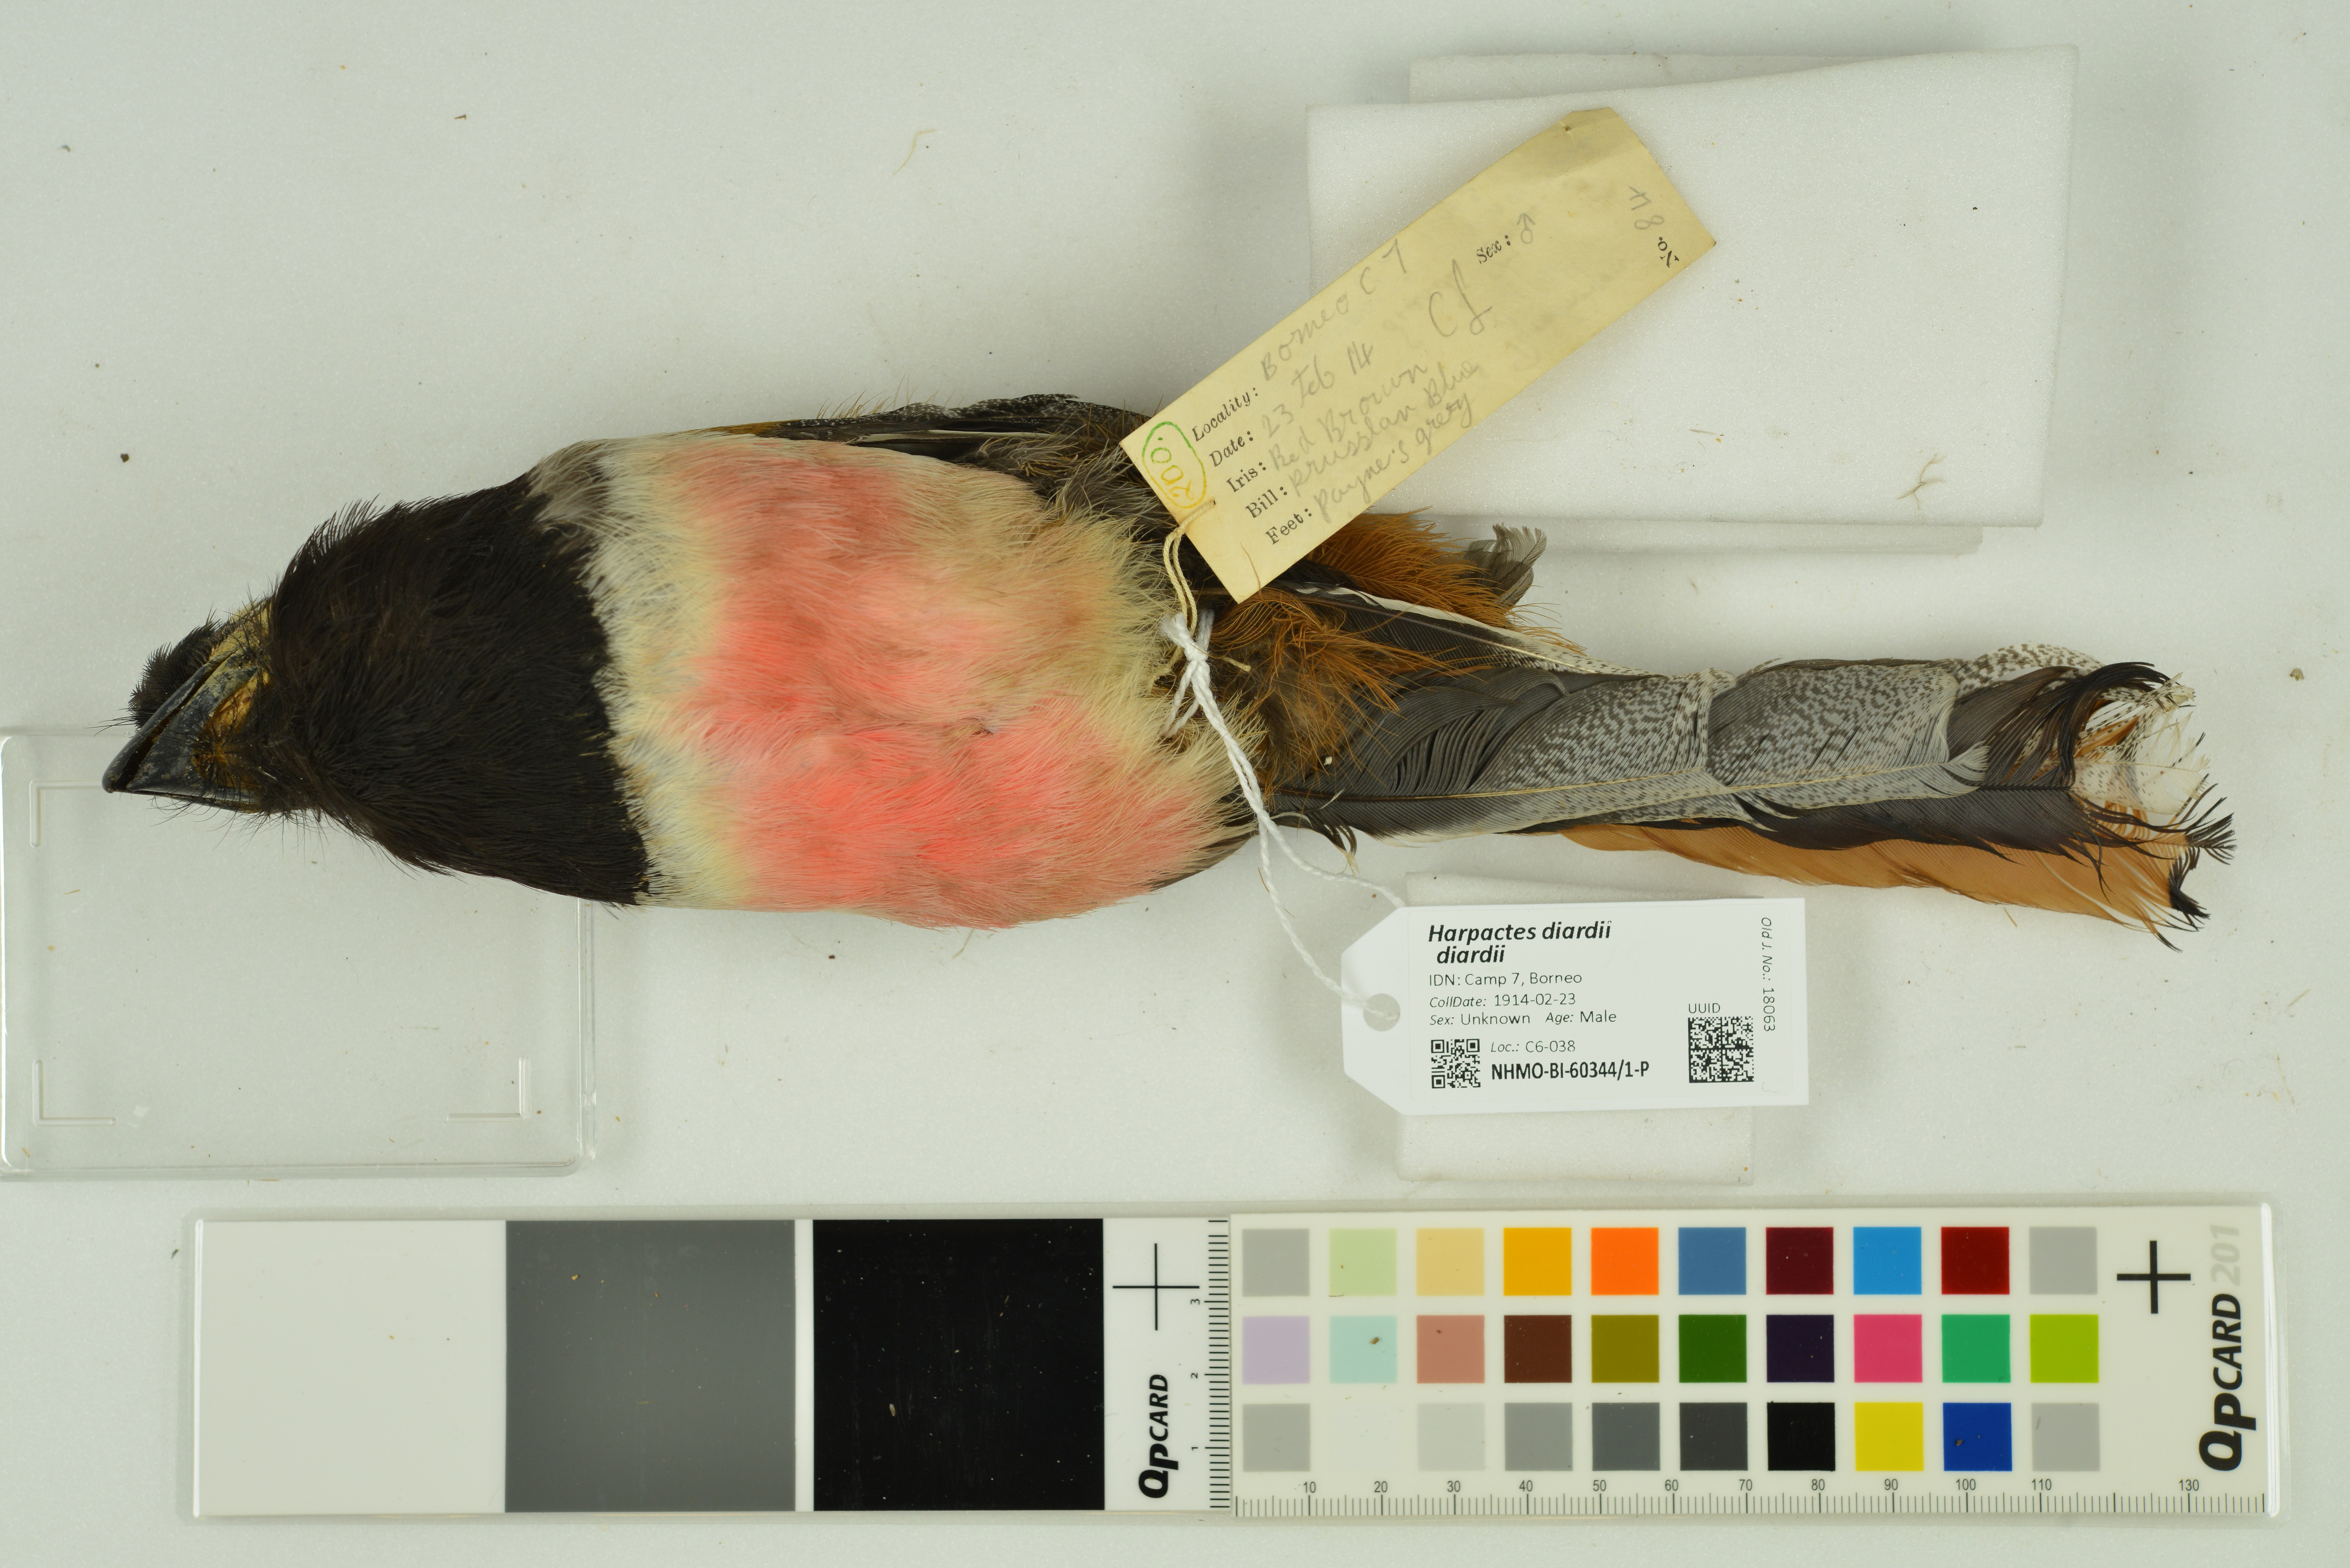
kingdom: Animalia
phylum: Chordata
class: Aves
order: Trogoniformes
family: Trogonidae
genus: Harpactes
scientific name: Harpactes diardii
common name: Diard's trogon
